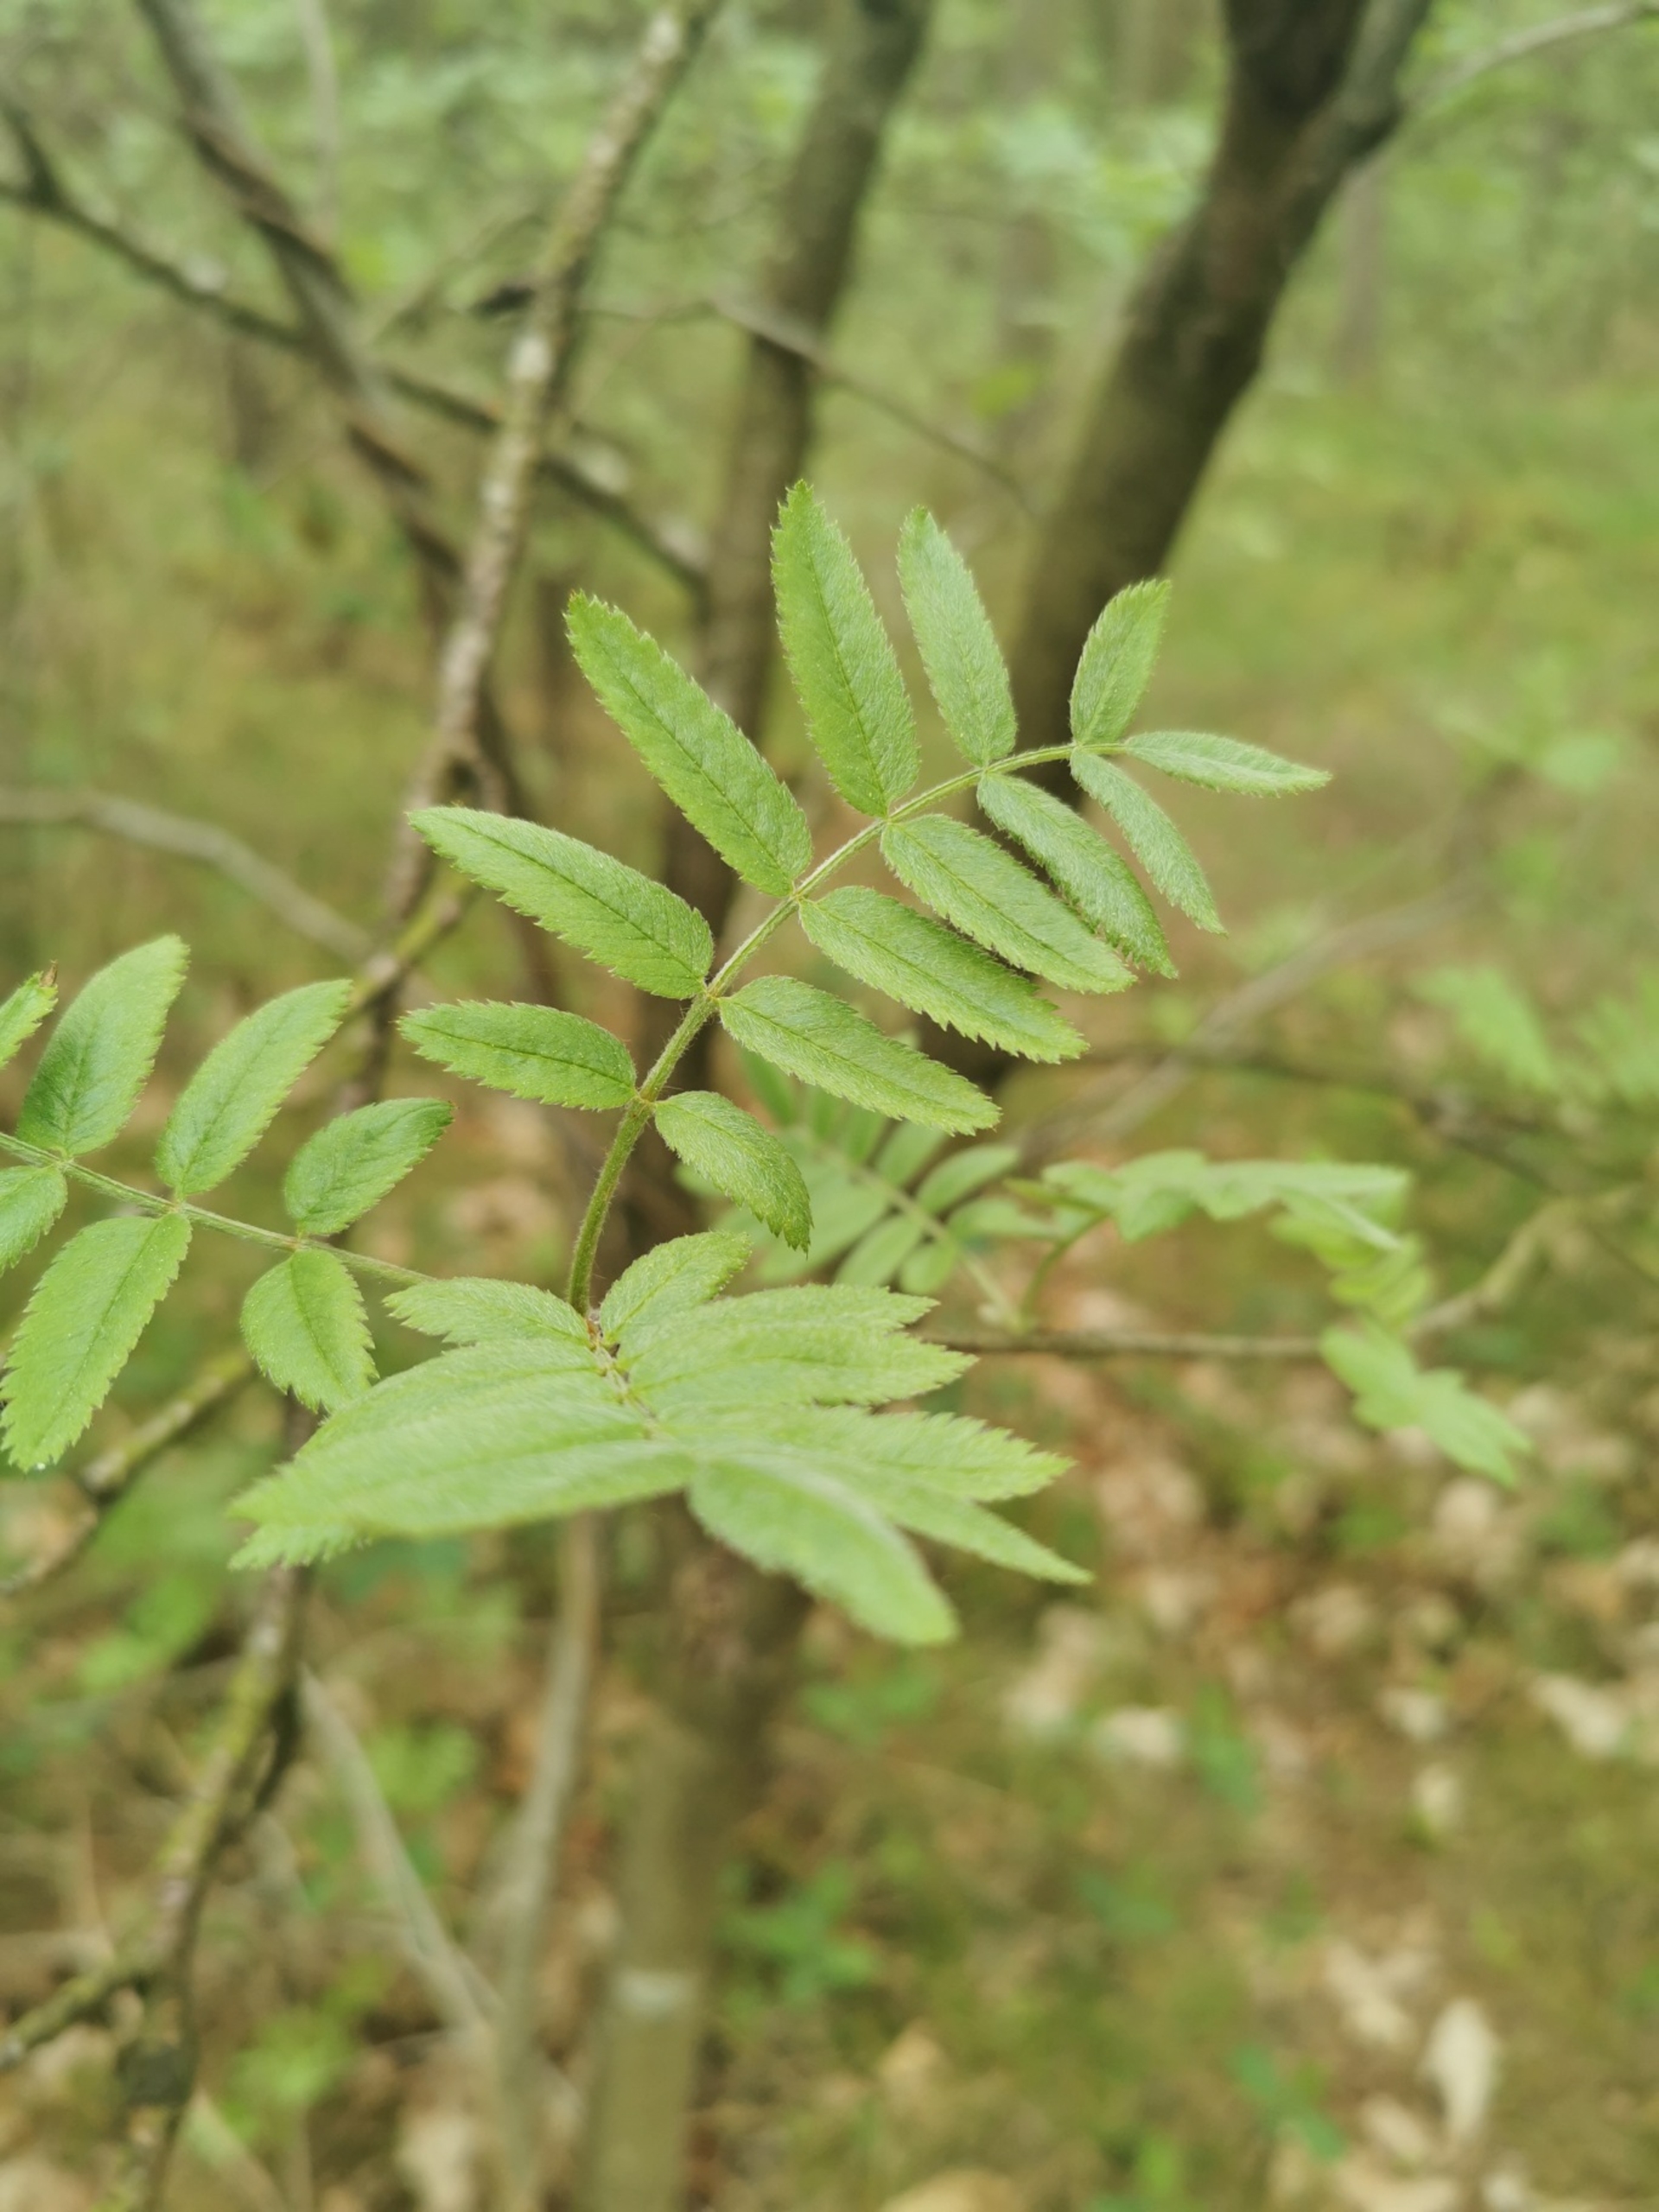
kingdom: Plantae
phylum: Tracheophyta
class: Magnoliopsida
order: Rosales
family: Rosaceae
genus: Sorbus
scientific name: Sorbus aucuparia
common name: Almindelig røn
